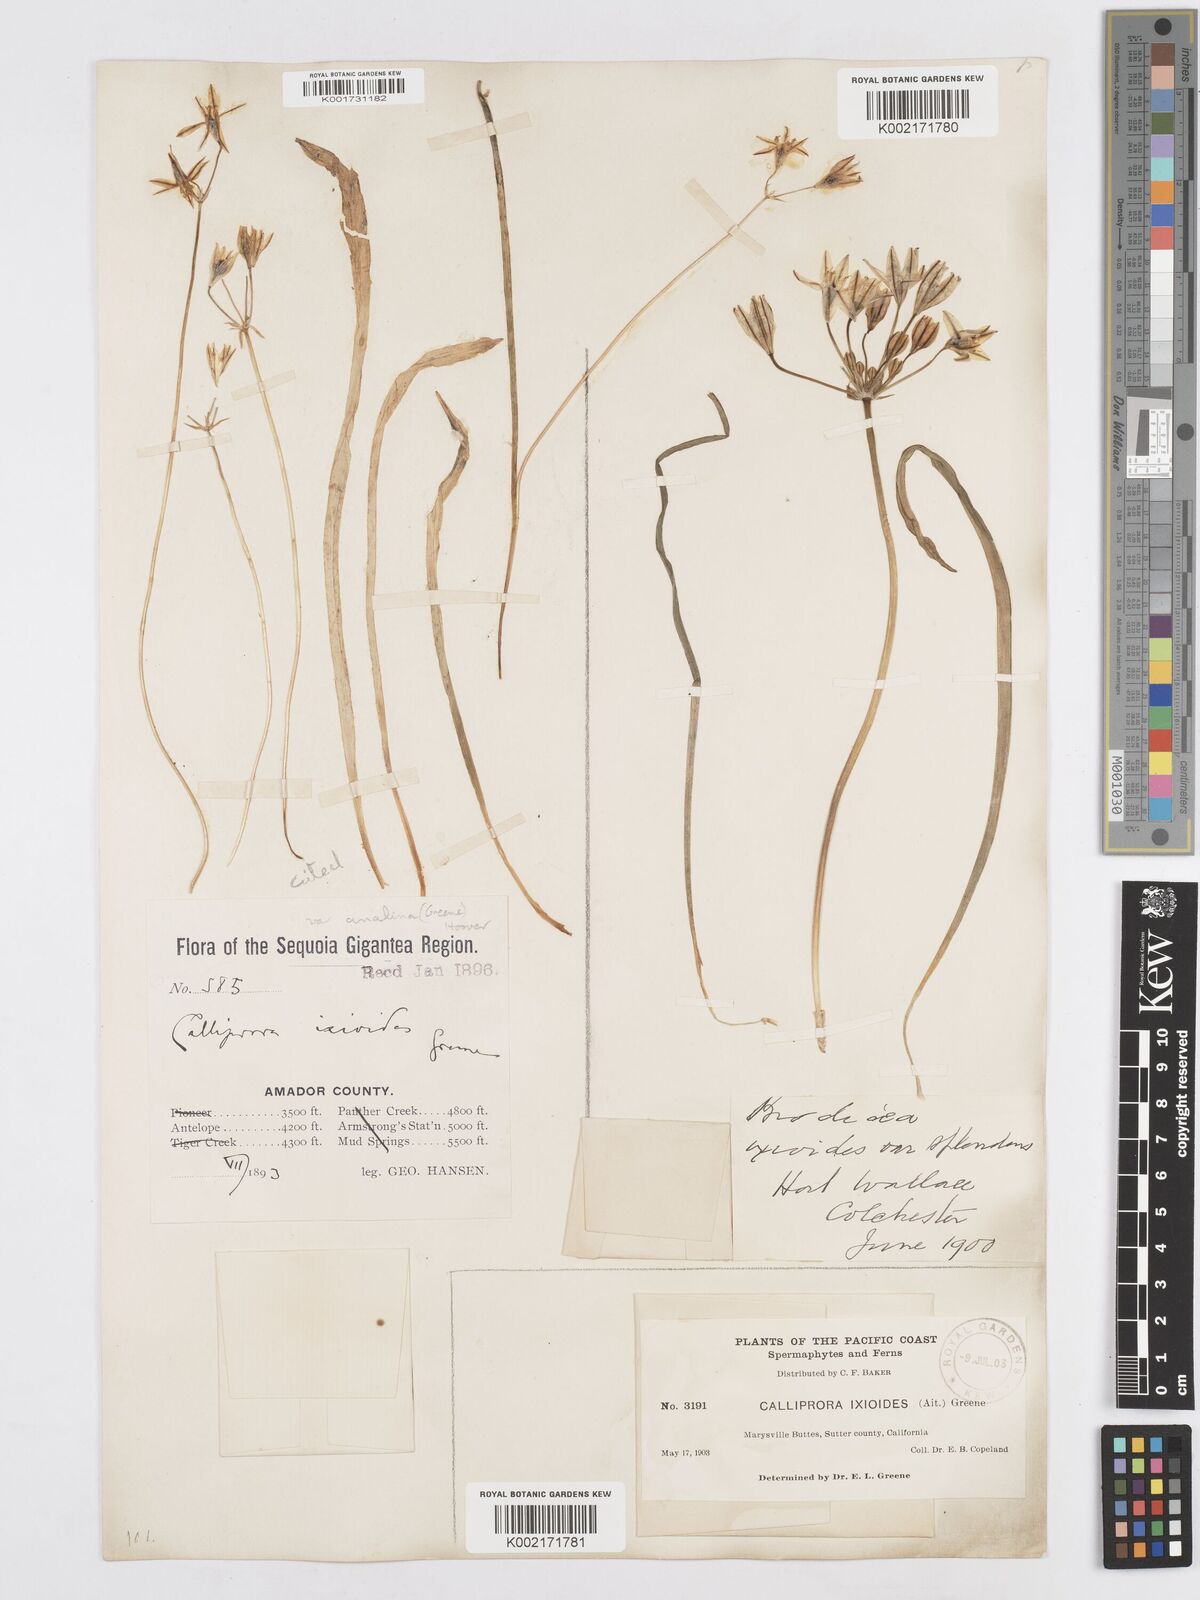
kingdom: Plantae
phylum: Tracheophyta
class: Liliopsida
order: Asparagales
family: Asparagaceae
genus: Triteleia
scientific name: Triteleia ixioides
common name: Yellow-brodiaea
